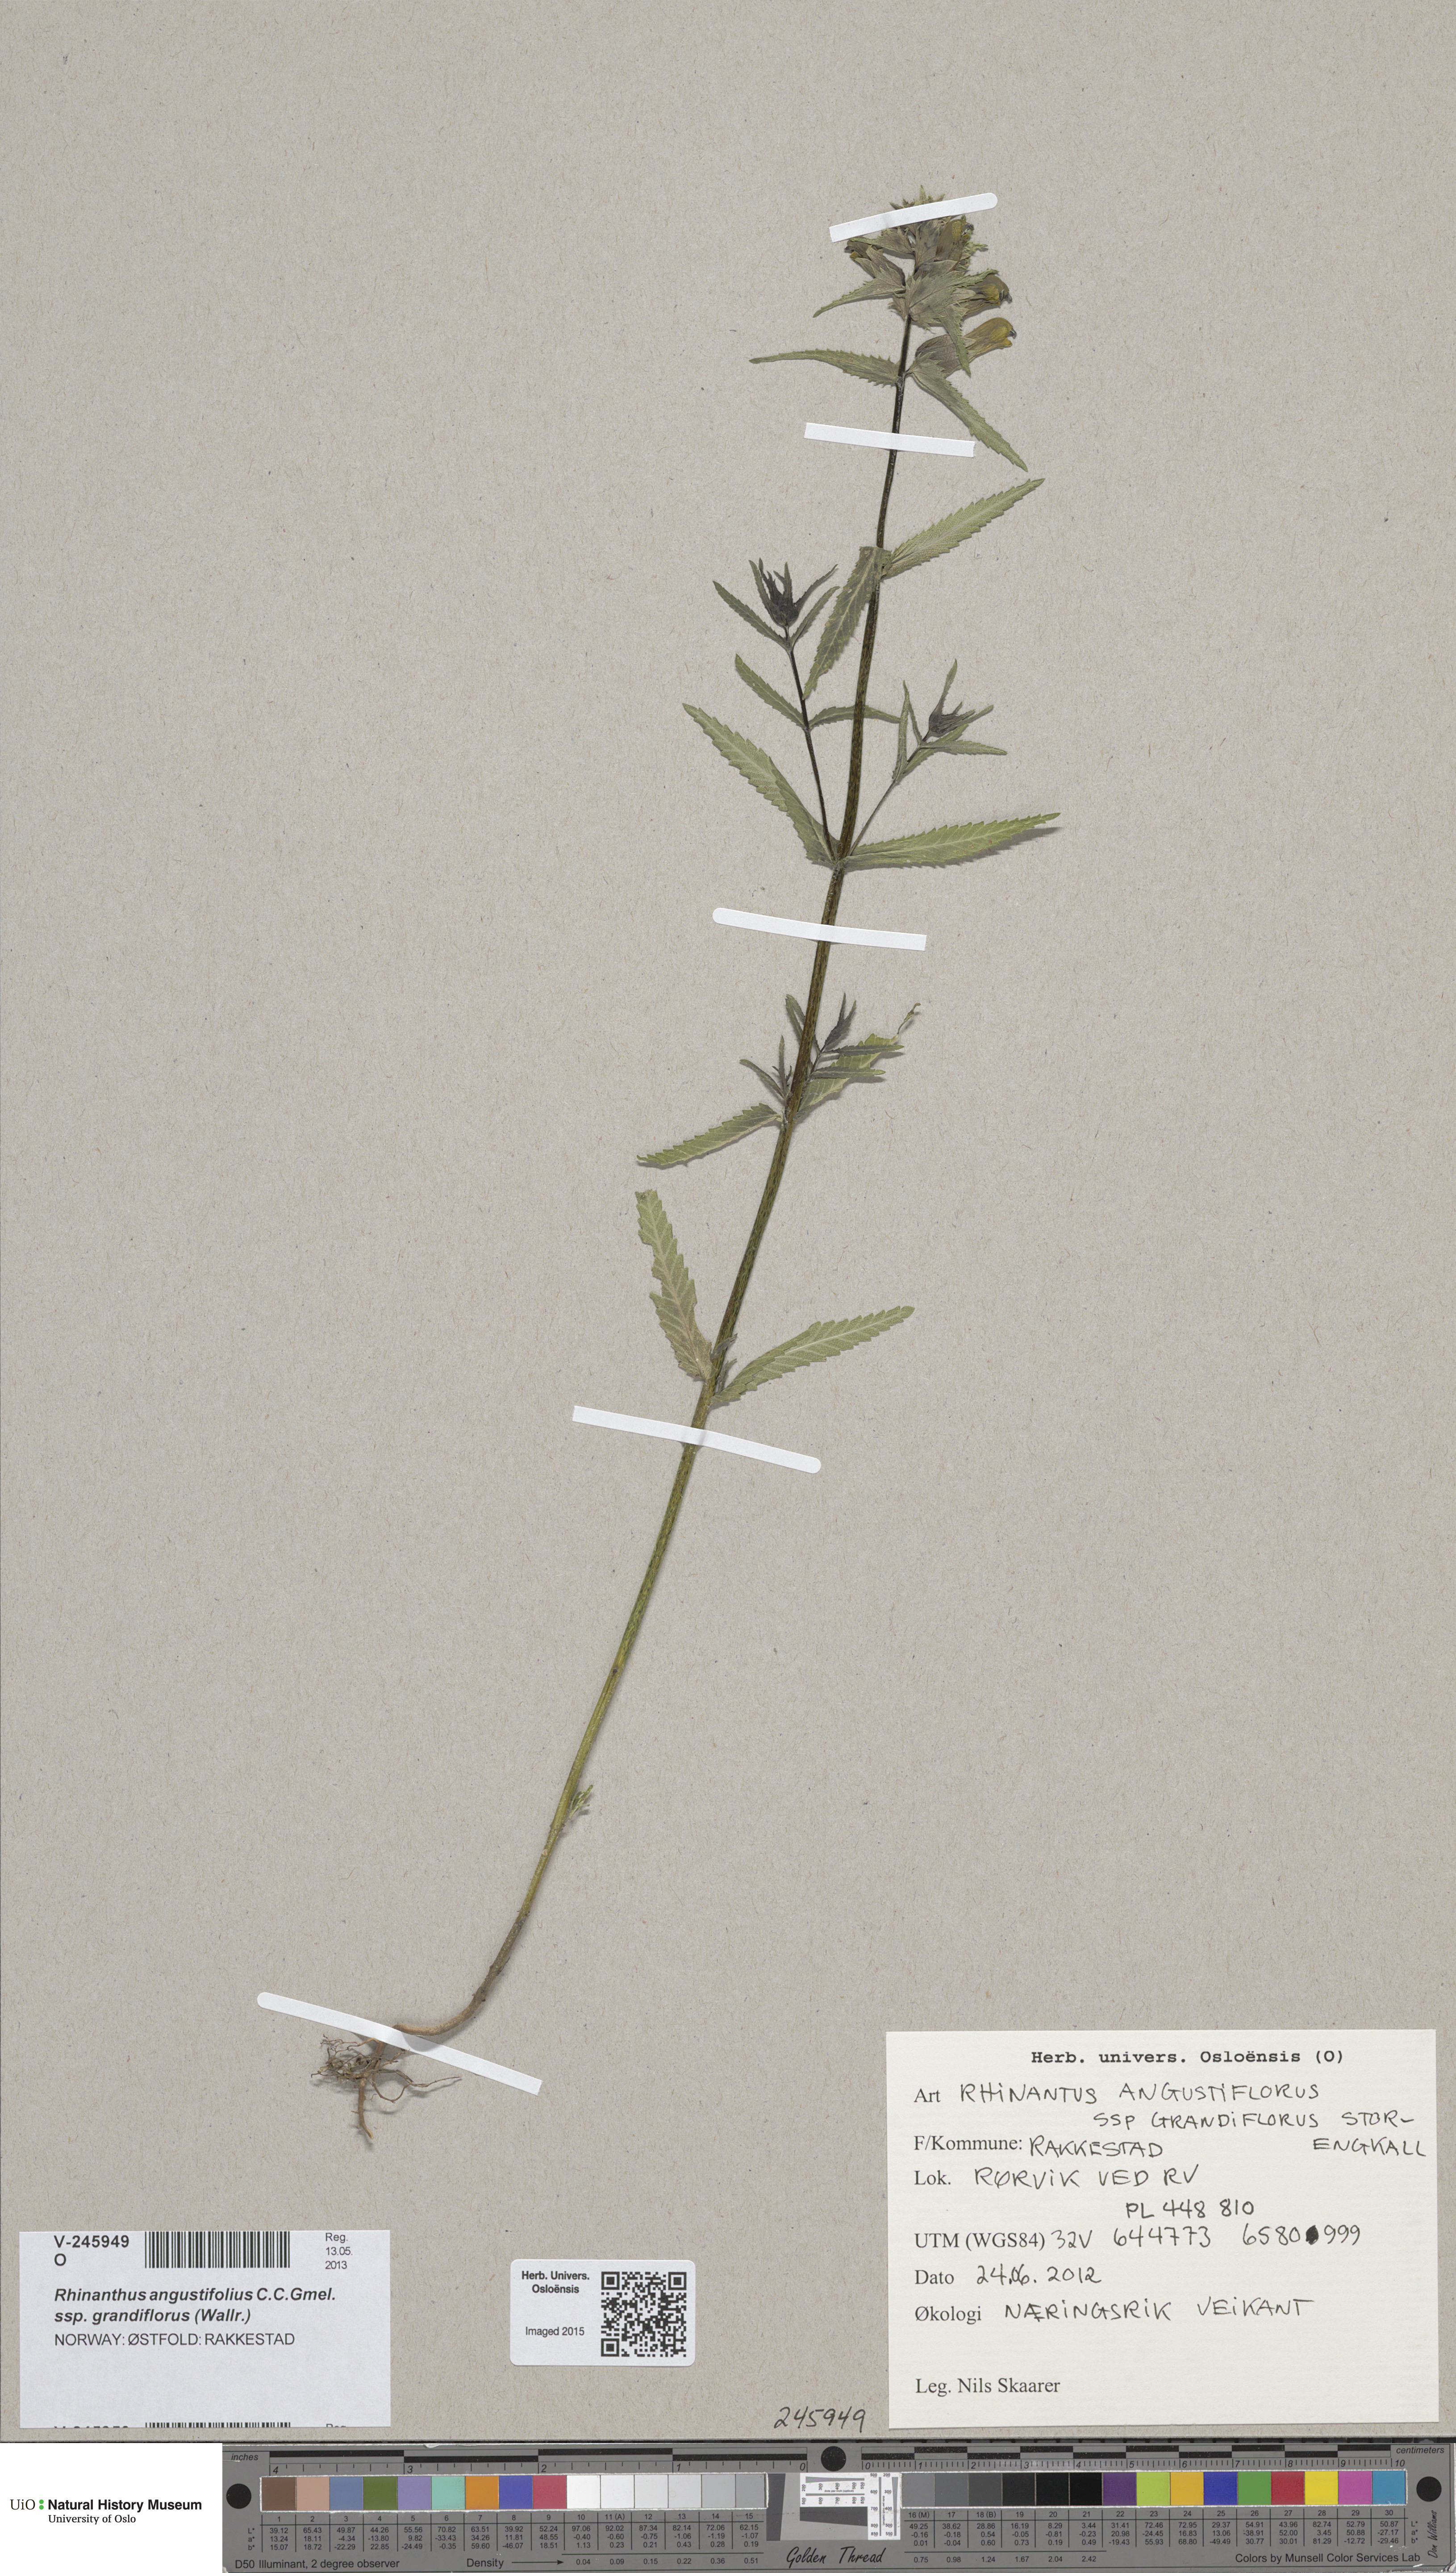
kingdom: Plantae
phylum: Tracheophyta
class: Magnoliopsida
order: Lamiales
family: Orobanchaceae
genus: Rhinanthus
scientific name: Rhinanthus serotinus
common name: Late-flowering yellow rattle
